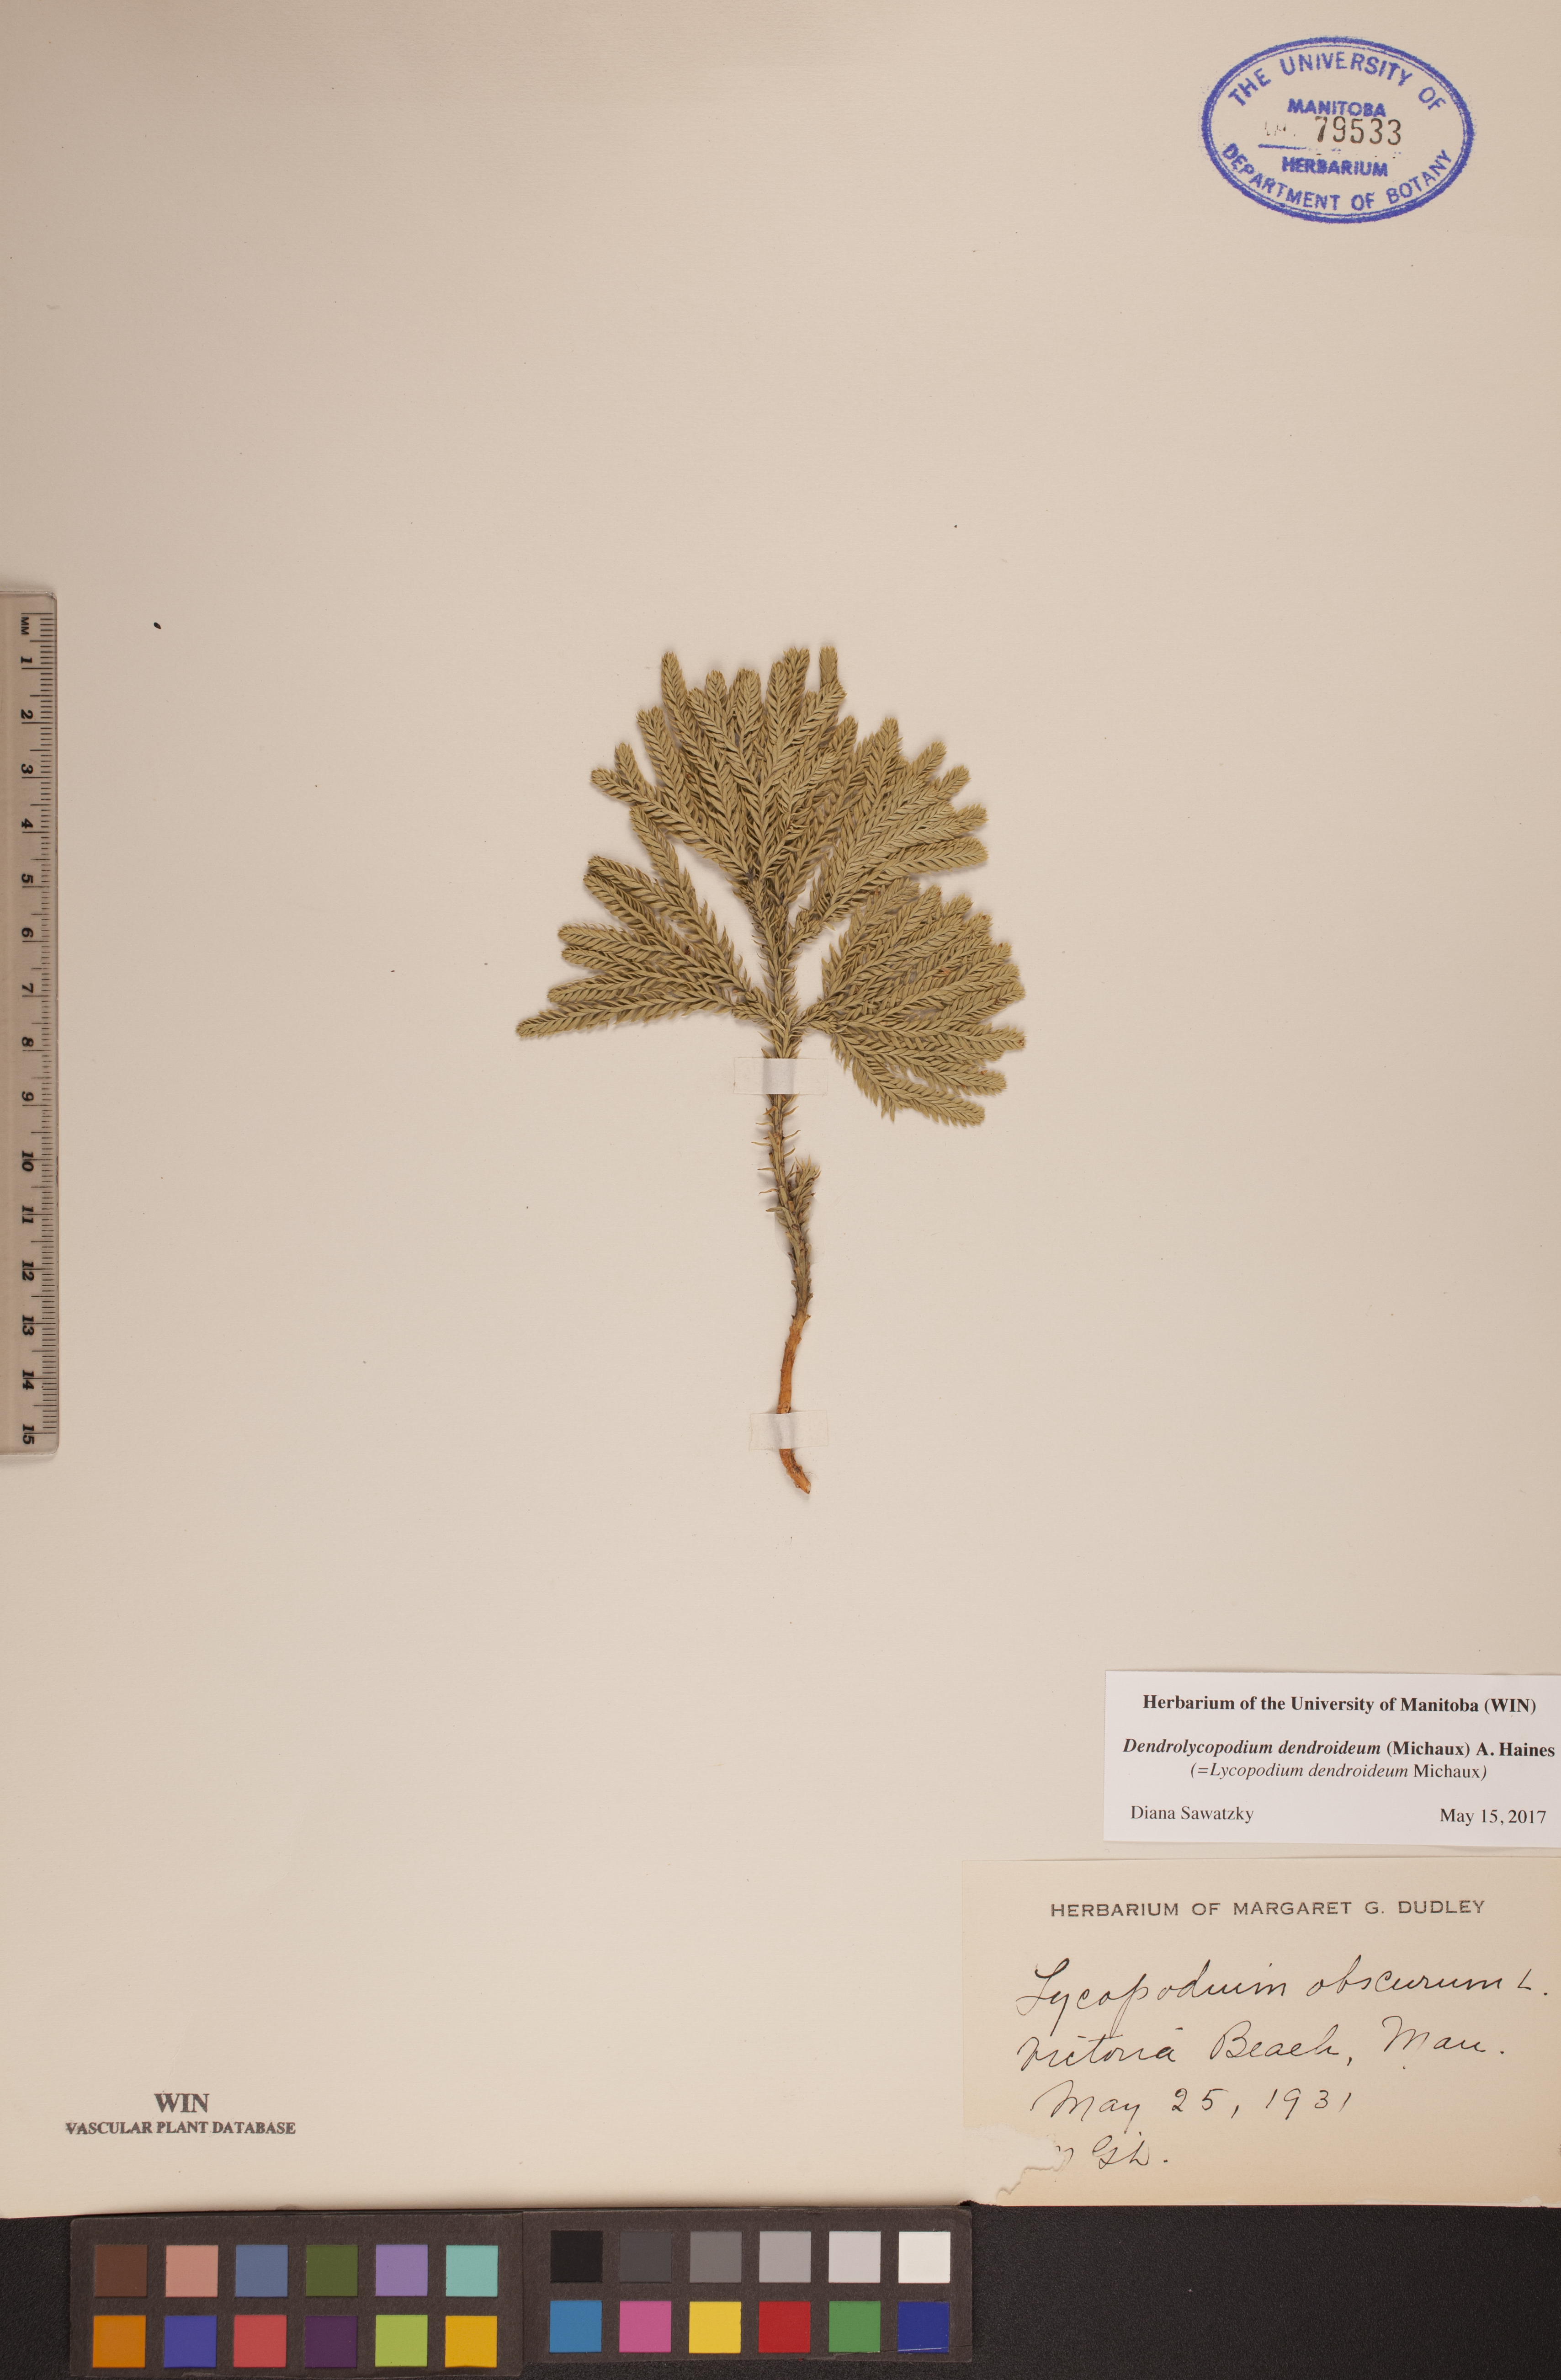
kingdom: Plantae
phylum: Tracheophyta
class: Lycopodiopsida
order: Lycopodiales
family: Lycopodiaceae
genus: Dendrolycopodium
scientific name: Dendrolycopodium dendroideum
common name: Northern tree-clubmoss
